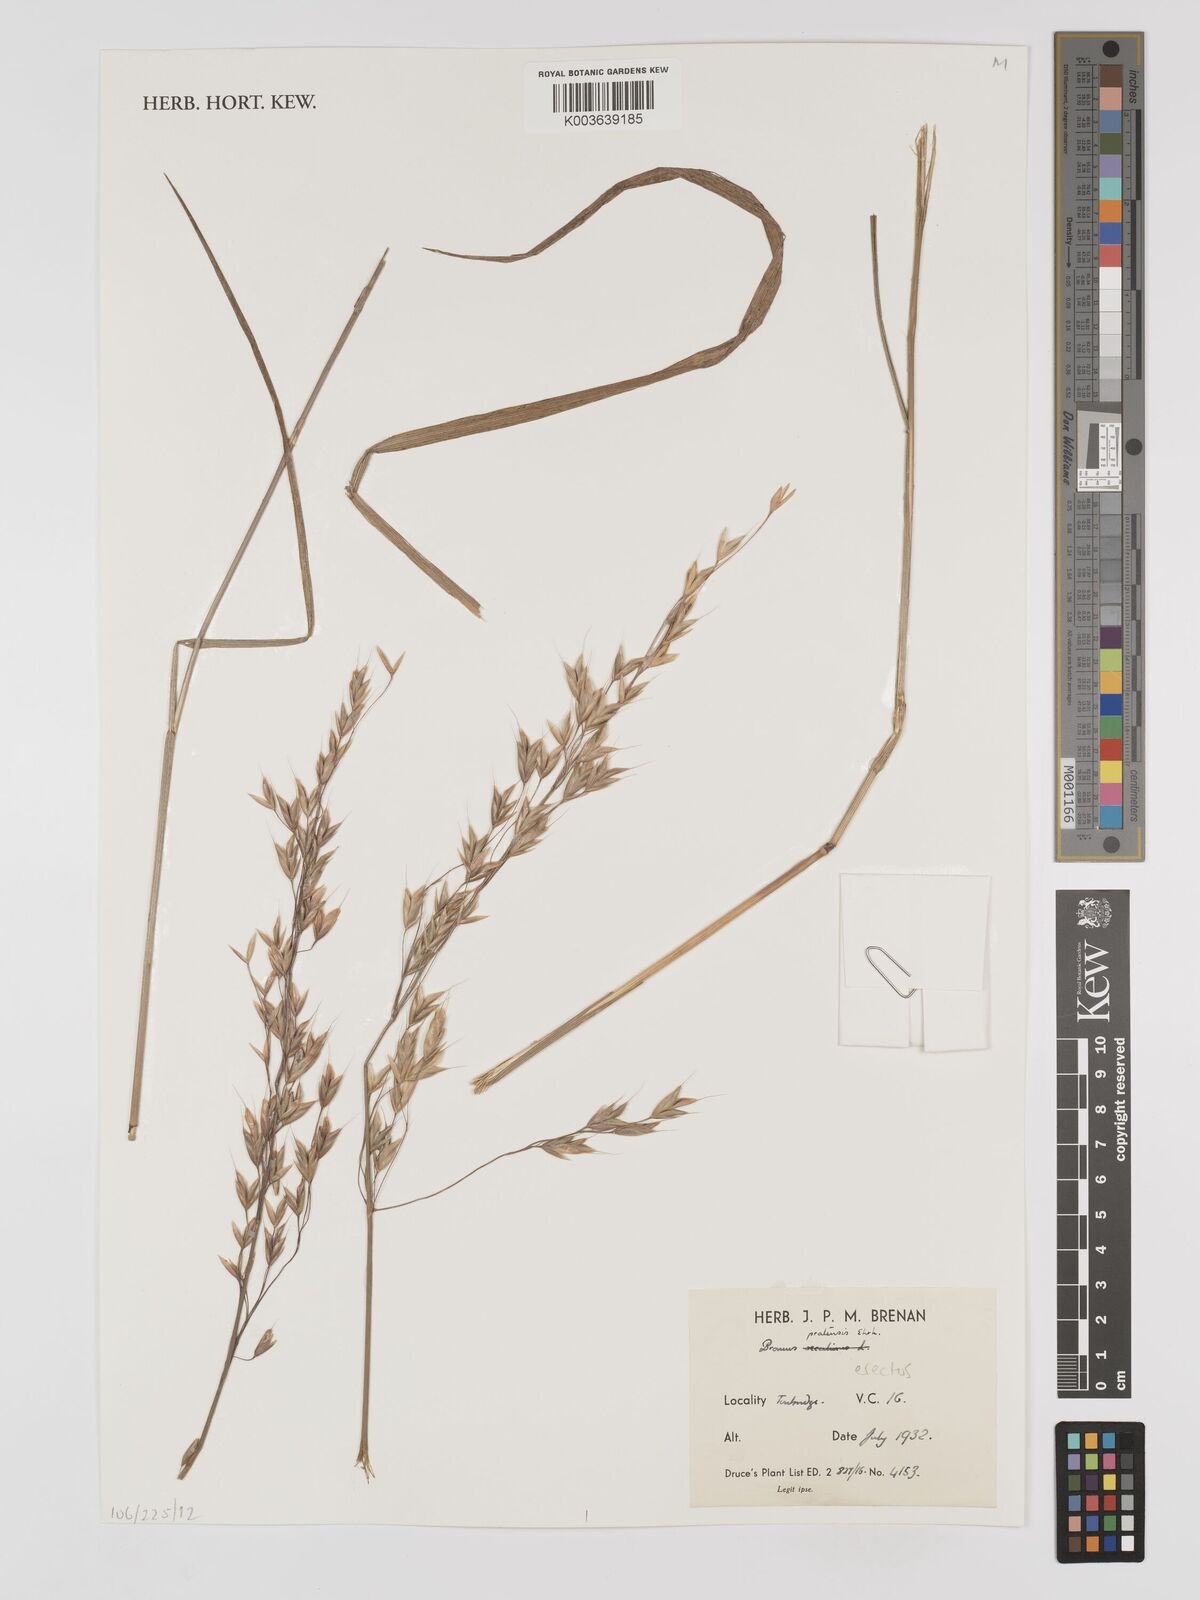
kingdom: Plantae
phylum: Tracheophyta
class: Liliopsida
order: Poales
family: Poaceae
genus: Bromus
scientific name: Bromus erectus
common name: Erect brome
